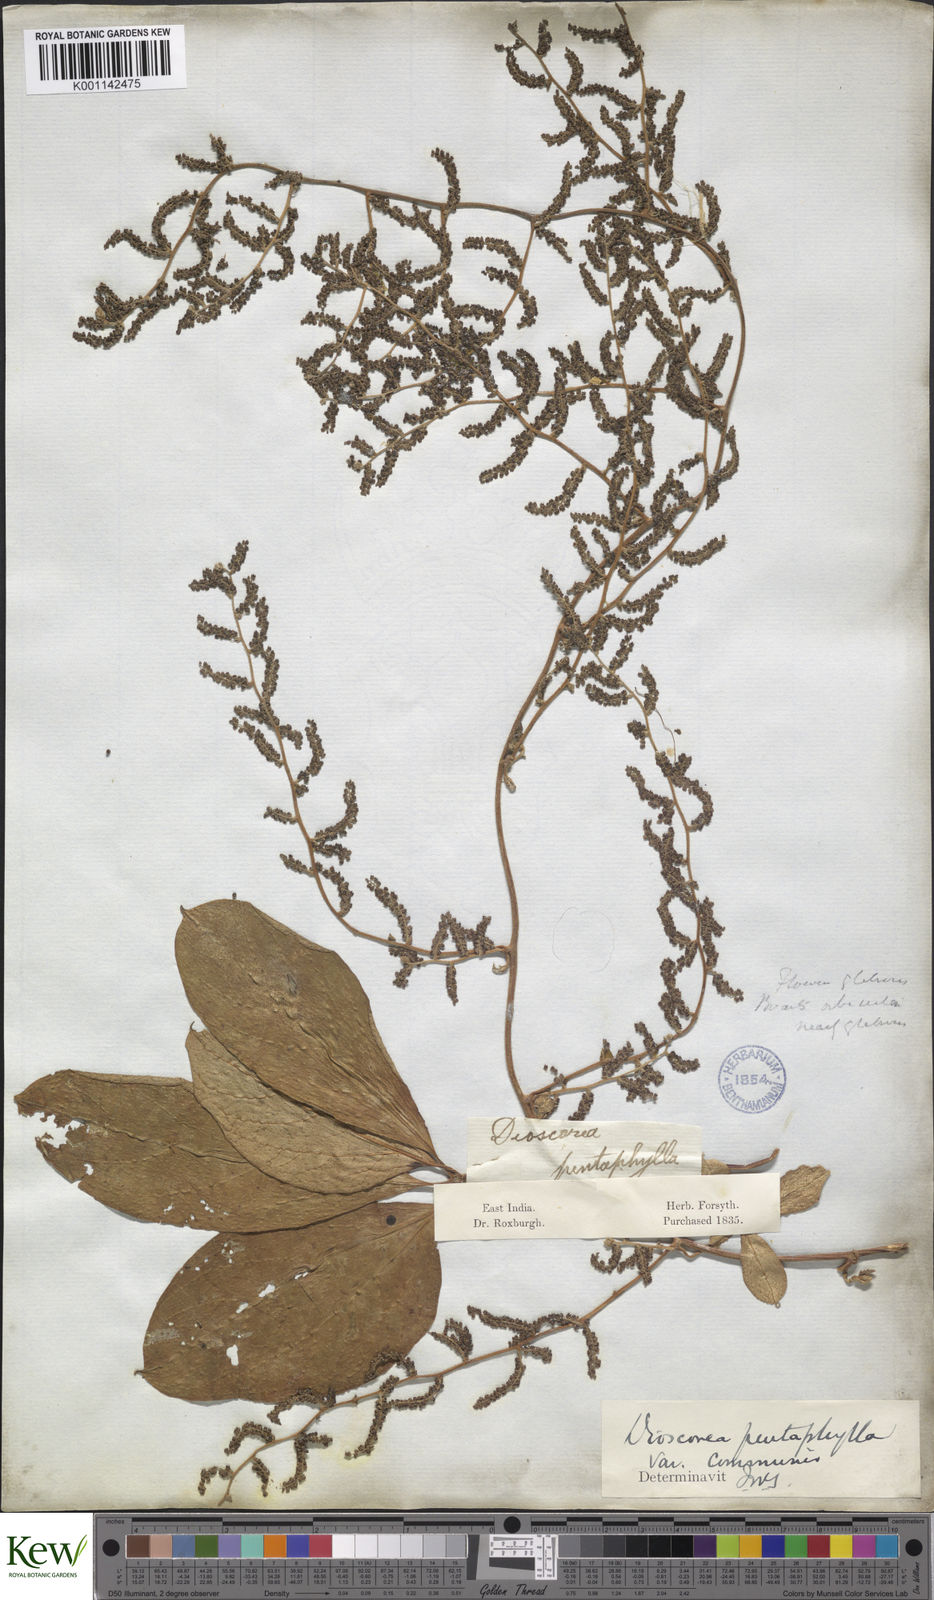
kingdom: Plantae
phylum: Tracheophyta
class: Liliopsida
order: Dioscoreales
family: Dioscoreaceae
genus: Dioscorea
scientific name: Dioscorea pentaphylla
